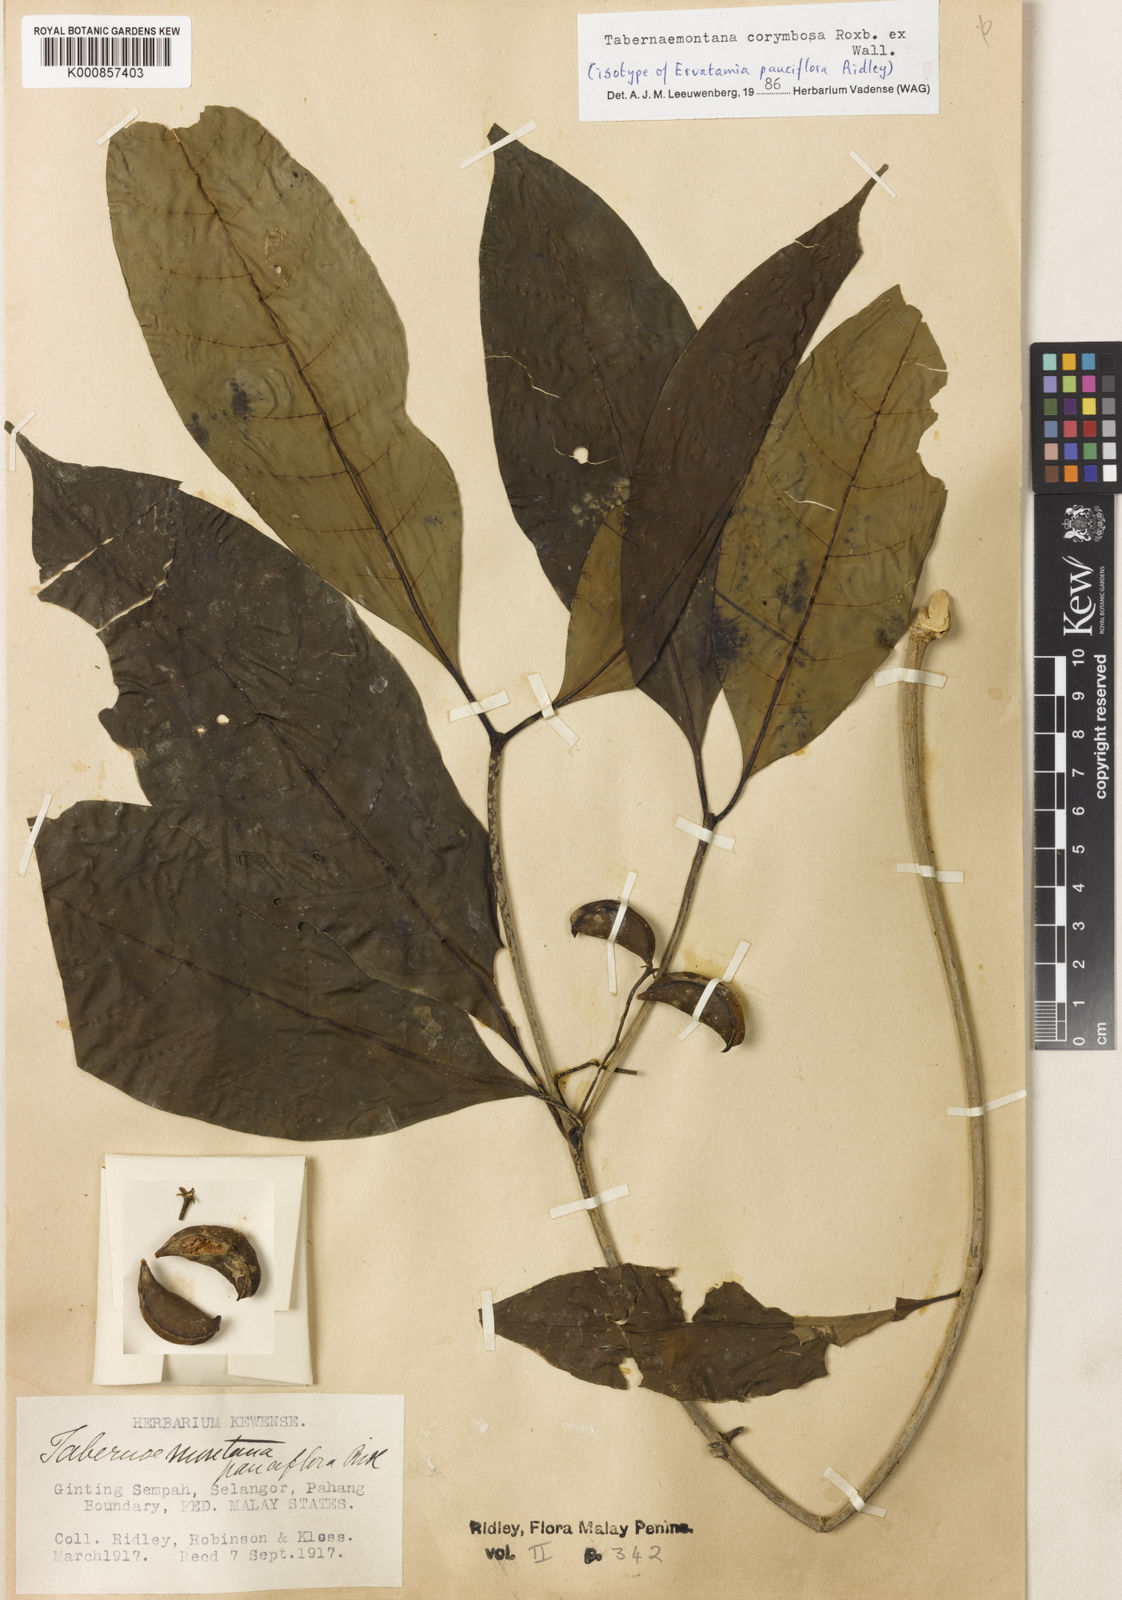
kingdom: Plantae
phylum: Tracheophyta
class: Magnoliopsida
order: Gentianales
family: Apocynaceae
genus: Tabernaemontana
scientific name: Tabernaemontana corymbosa
